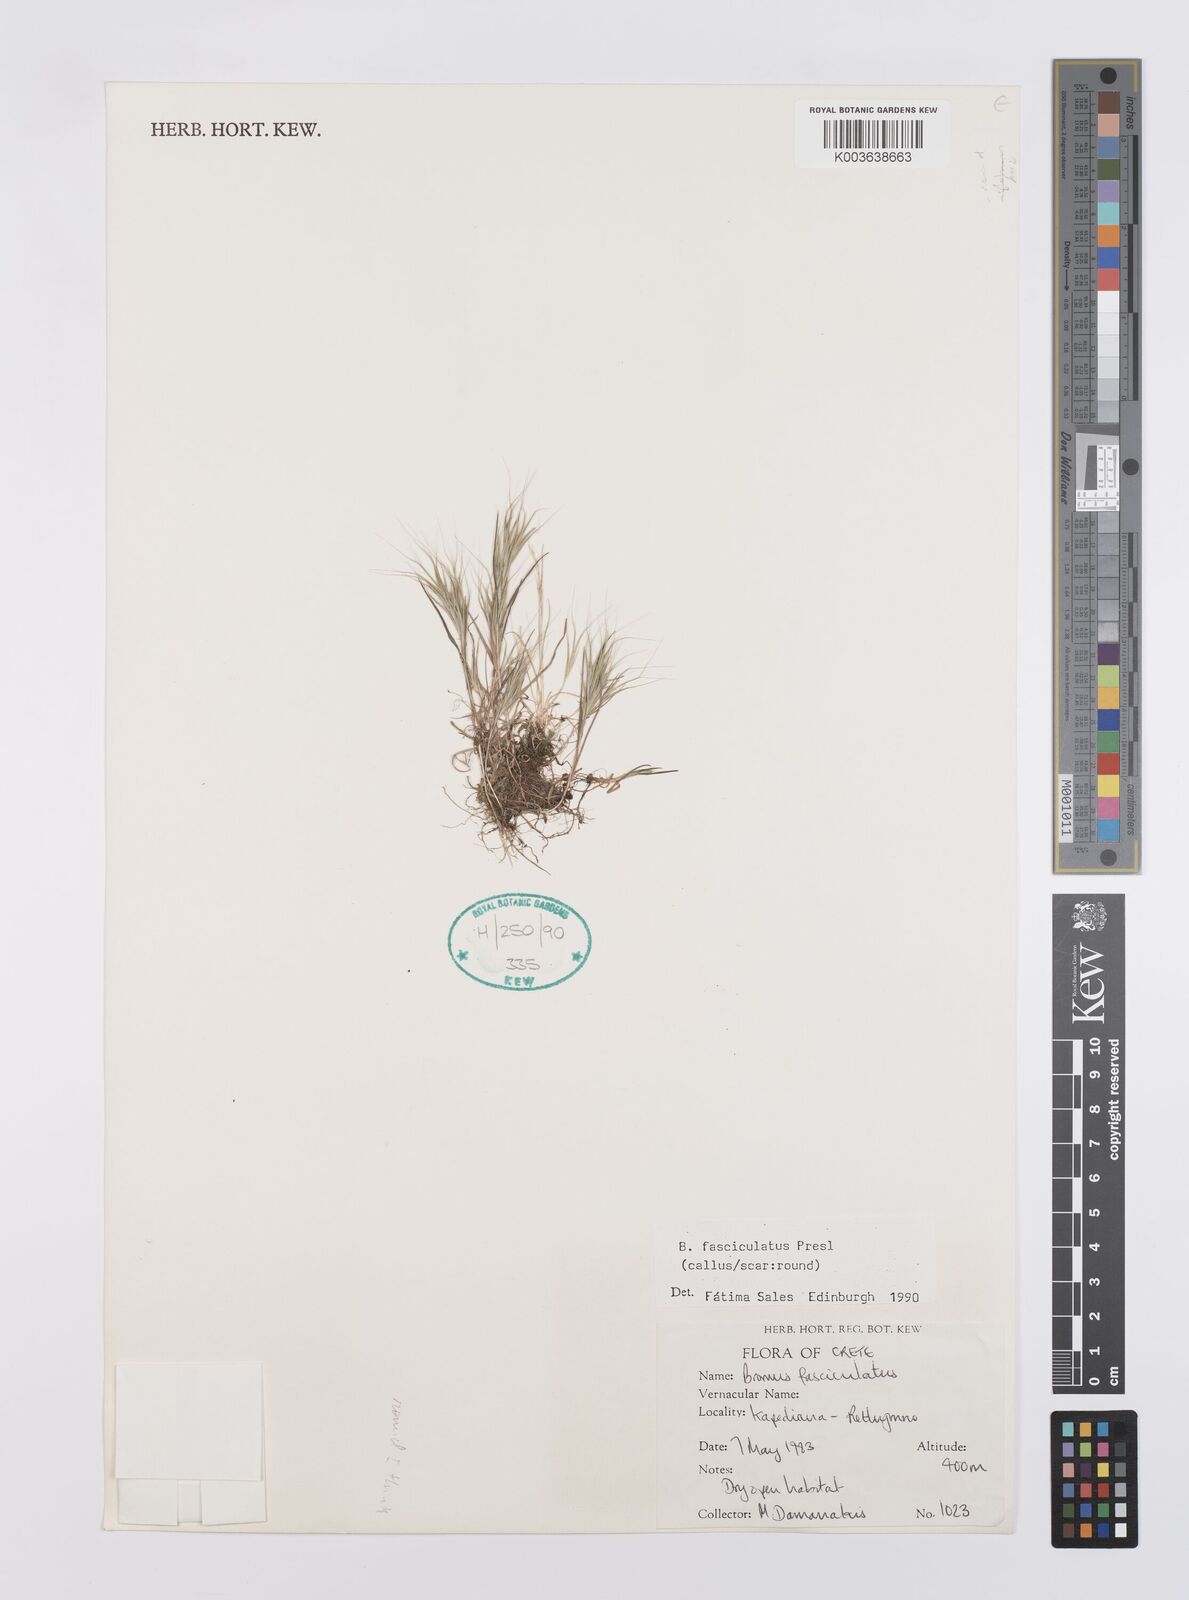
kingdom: Plantae
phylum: Tracheophyta
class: Liliopsida
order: Poales
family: Poaceae
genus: Bromus
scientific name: Bromus fasciculatus
